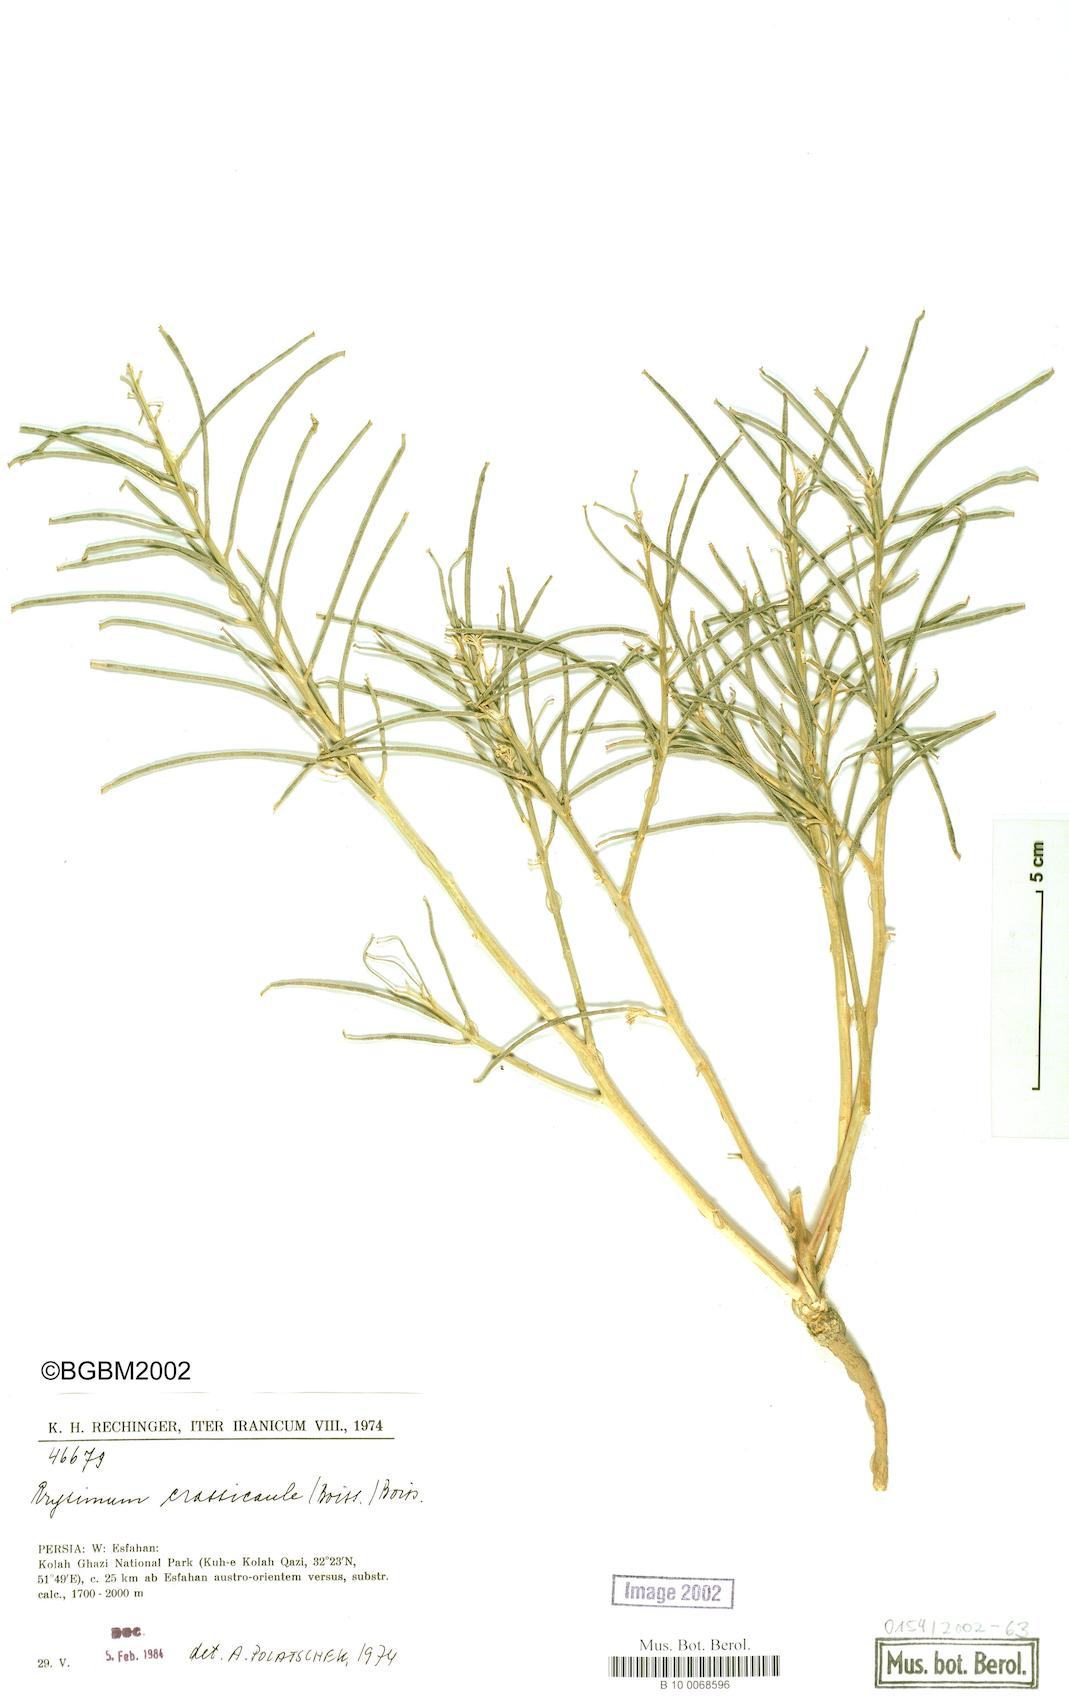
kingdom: Plantae
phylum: Tracheophyta
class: Magnoliopsida
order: Brassicales
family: Brassicaceae
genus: Erysimum
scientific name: Erysimum crassicaule
